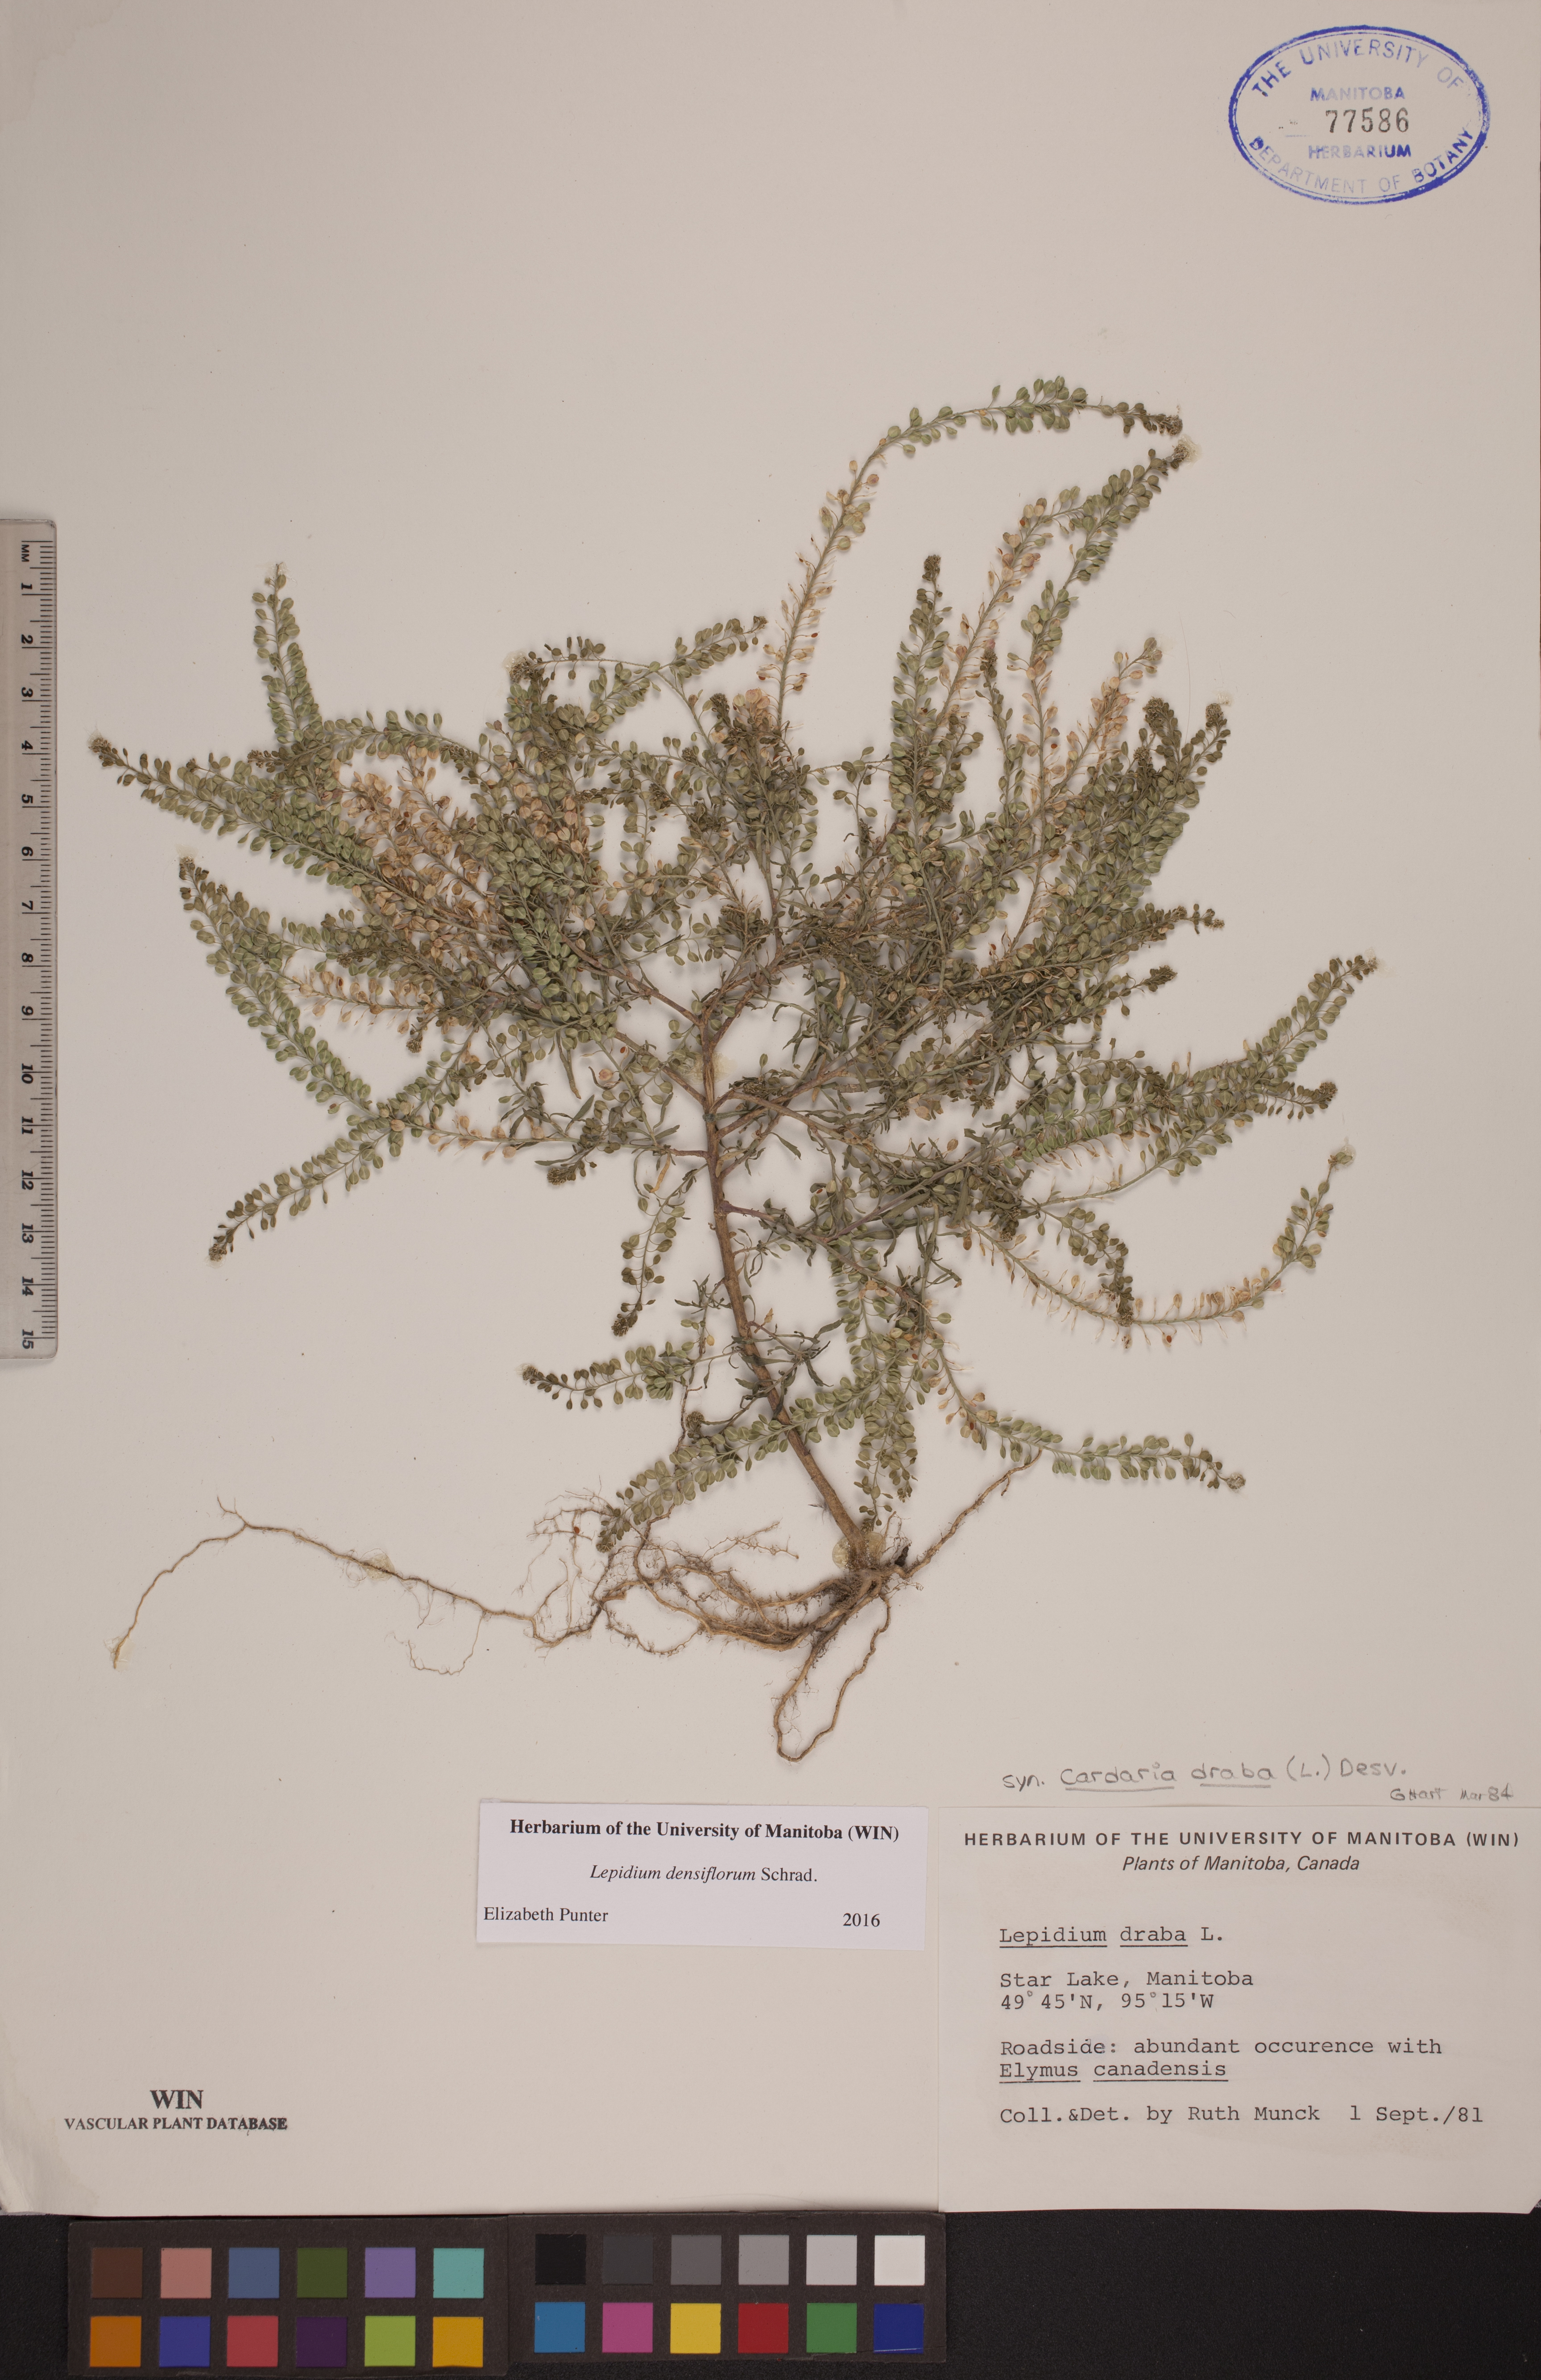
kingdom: Plantae
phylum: Tracheophyta
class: Magnoliopsida
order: Brassicales
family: Brassicaceae
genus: Lepidium
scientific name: Lepidium densiflorum
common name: Miner's pepperwort
